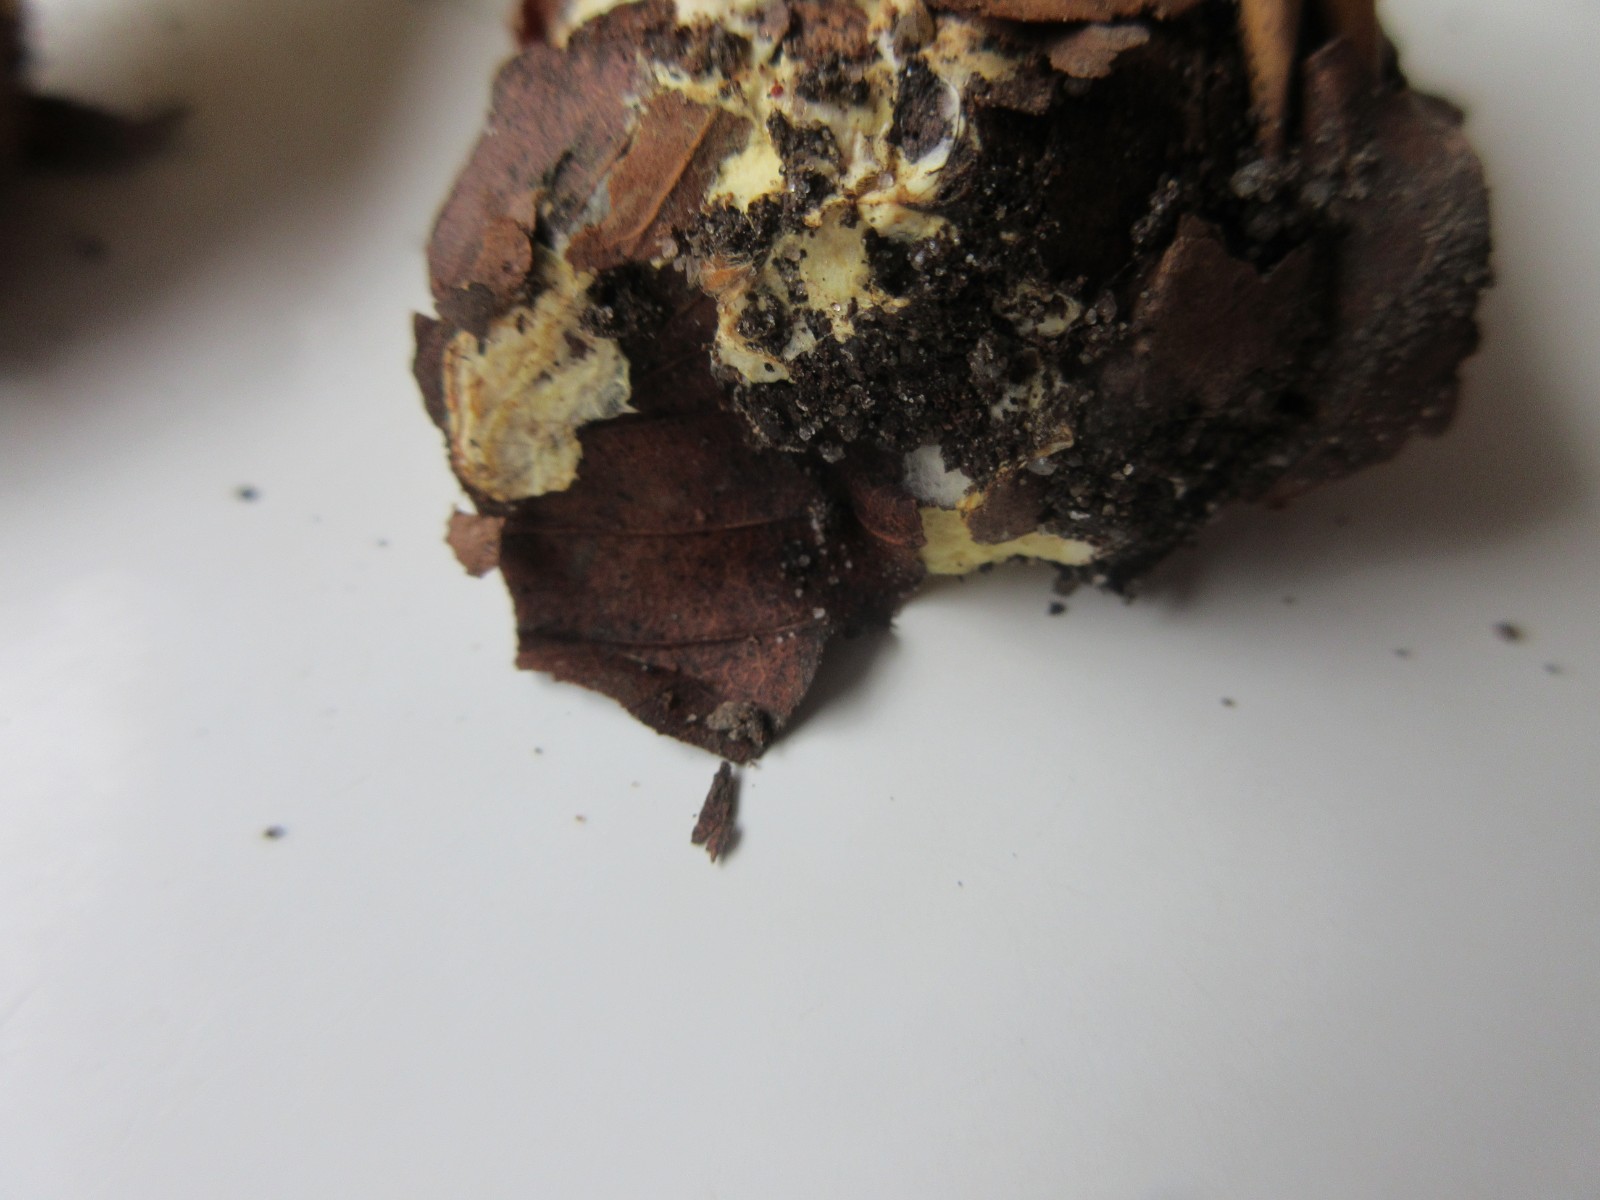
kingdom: Fungi
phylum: Basidiomycota
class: Agaricomycetes
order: Agaricales
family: Cortinariaceae
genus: Cortinarius
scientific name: Cortinarius bergeronii
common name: prægtig slørhat
